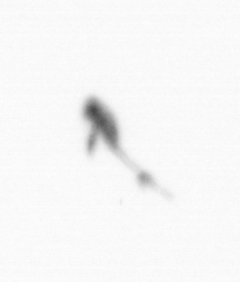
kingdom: Animalia
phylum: Arthropoda
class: Copepoda
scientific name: Copepoda
